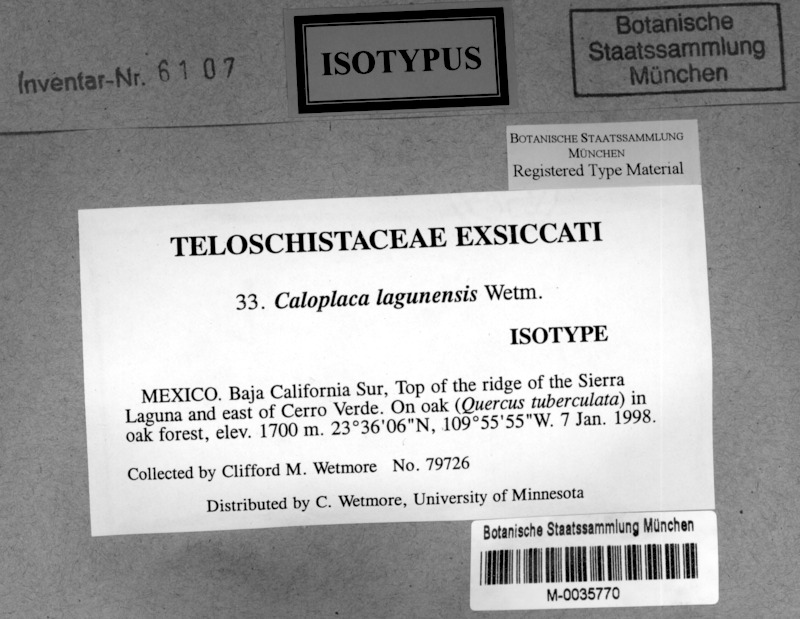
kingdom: Fungi
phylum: Ascomycota
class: Lecanoromycetes
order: Teloschistales
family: Teloschistaceae
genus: Caloplaca
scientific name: Caloplaca lagunensis
